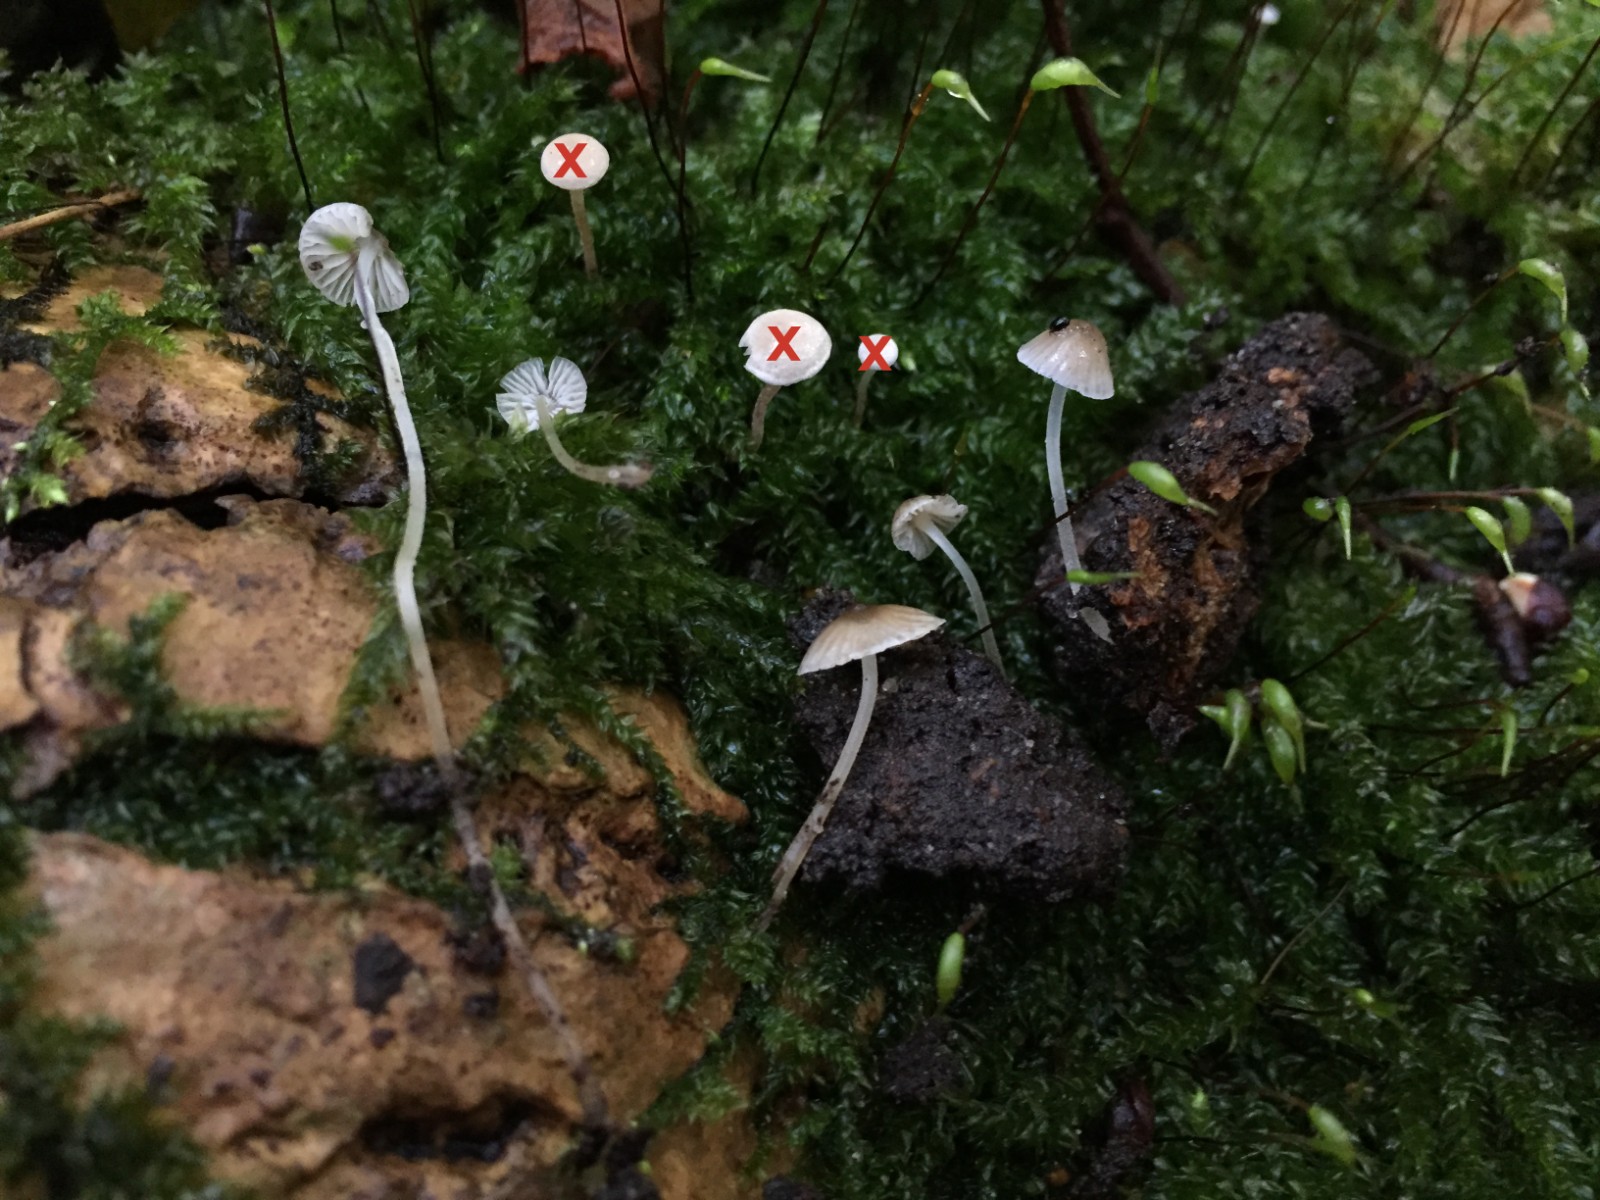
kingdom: Fungi
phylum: Basidiomycota
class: Agaricomycetes
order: Agaricales
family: Porotheleaceae
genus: Phloeomana
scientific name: Phloeomana hiemalis
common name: sen huesvamp
